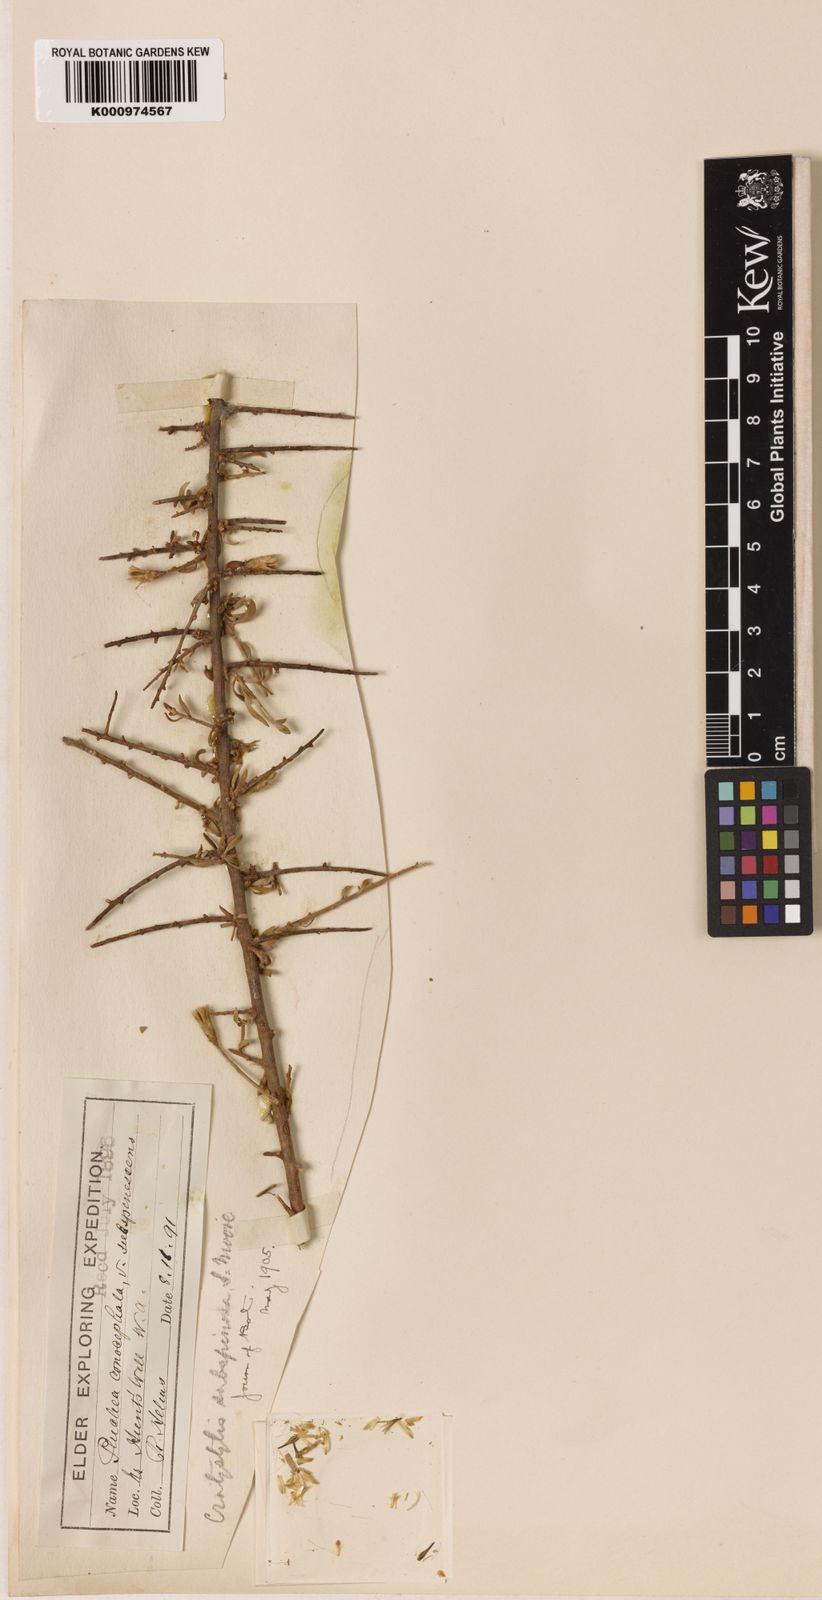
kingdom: Plantae
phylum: Tracheophyta
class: Magnoliopsida
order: Asterales
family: Asteraceae
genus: Cratystylis
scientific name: Cratystylis
